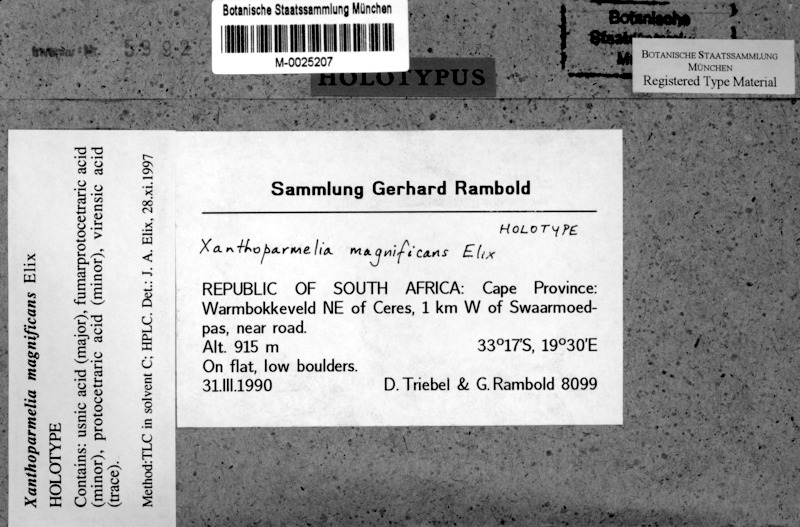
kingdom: Fungi
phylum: Ascomycota
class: Lecanoromycetes
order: Lecanorales
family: Parmeliaceae
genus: Xanthoparmelia
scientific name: Xanthoparmelia
